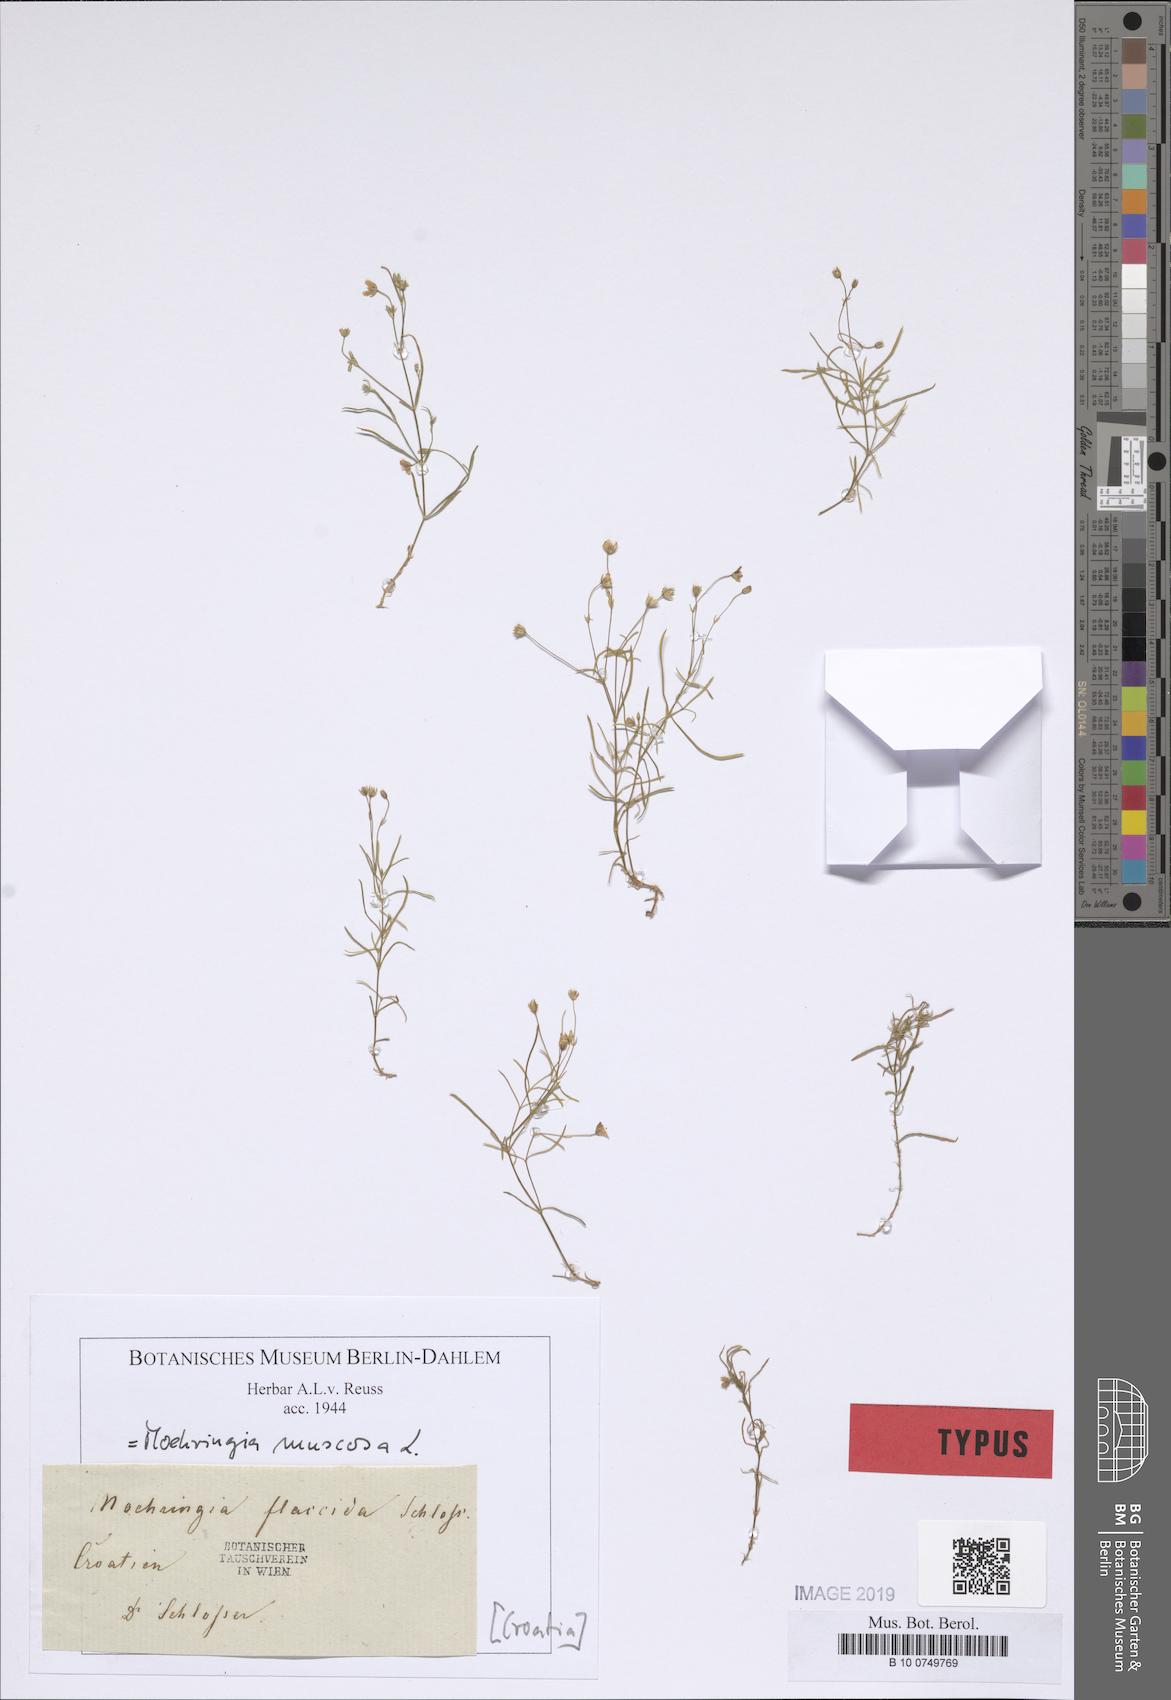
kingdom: Plantae
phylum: Tracheophyta
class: Magnoliopsida
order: Caryophyllales
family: Caryophyllaceae
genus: Moehringia
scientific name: Moehringia muscosa
